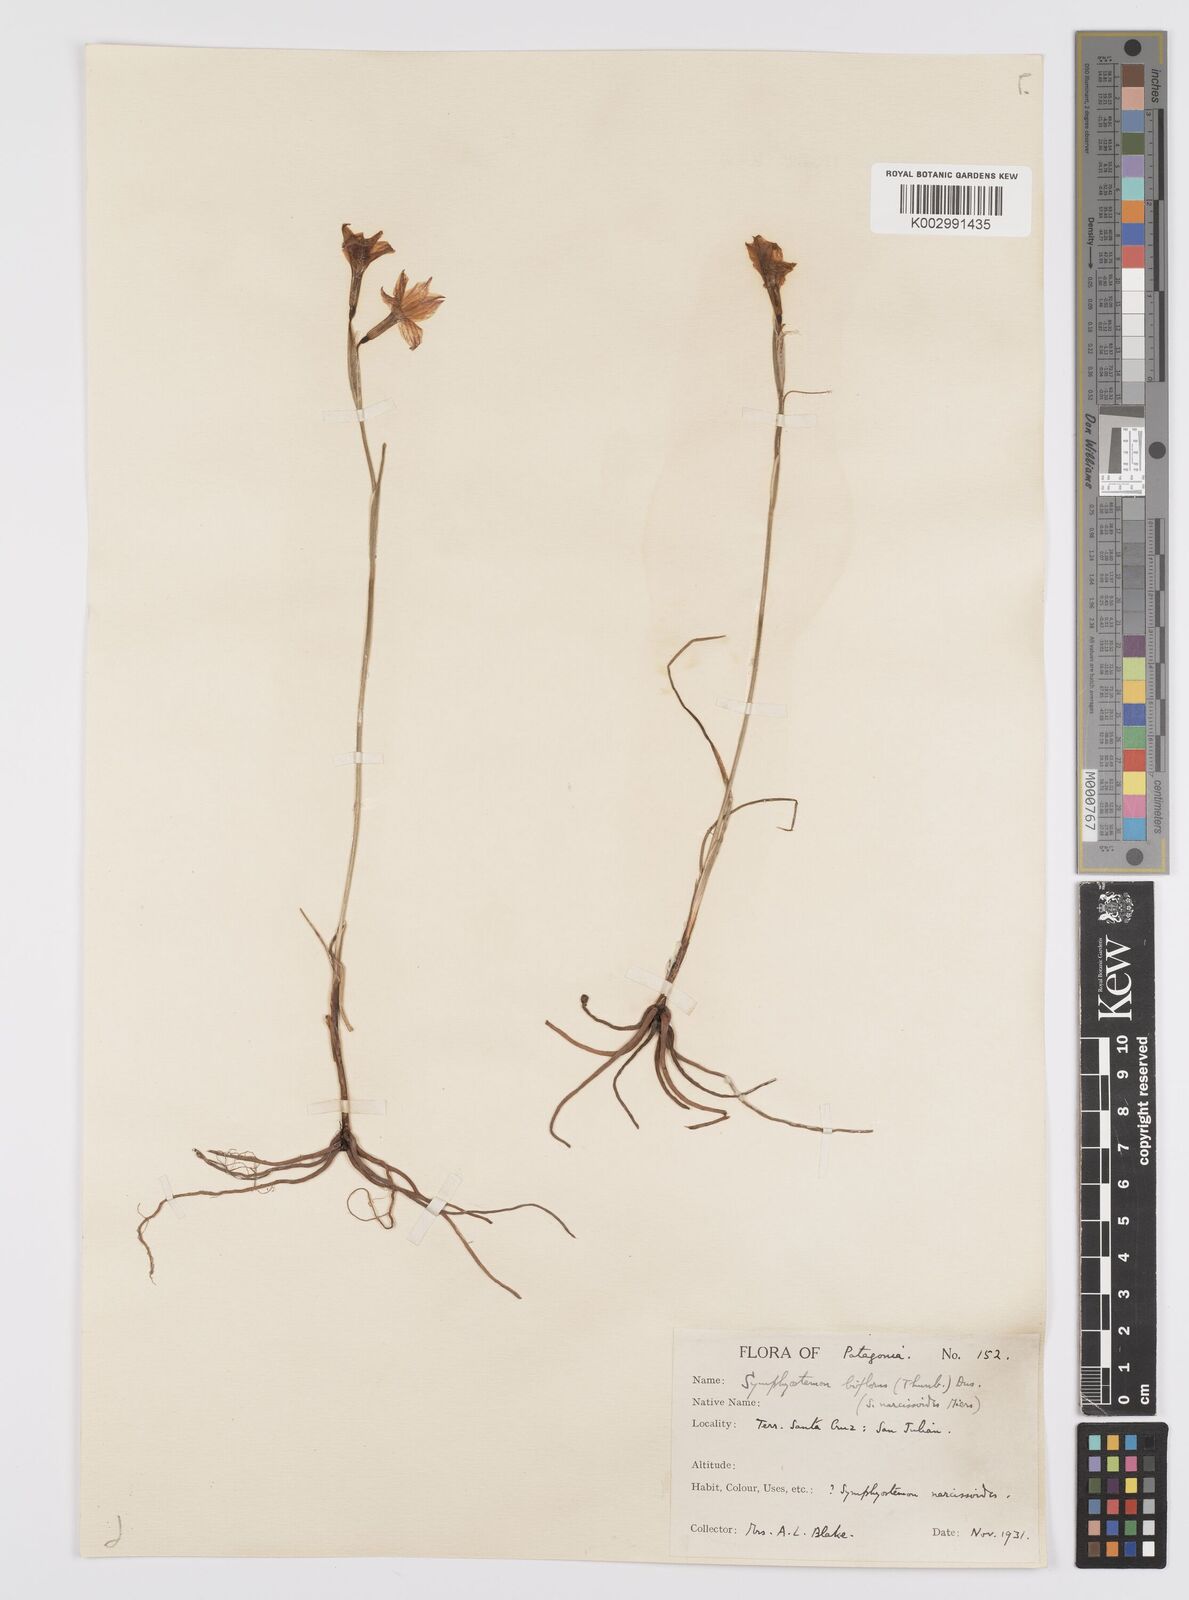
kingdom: Plantae
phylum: Tracheophyta
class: Liliopsida
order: Asparagales
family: Iridaceae
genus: Olsynium
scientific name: Olsynium biflorum
